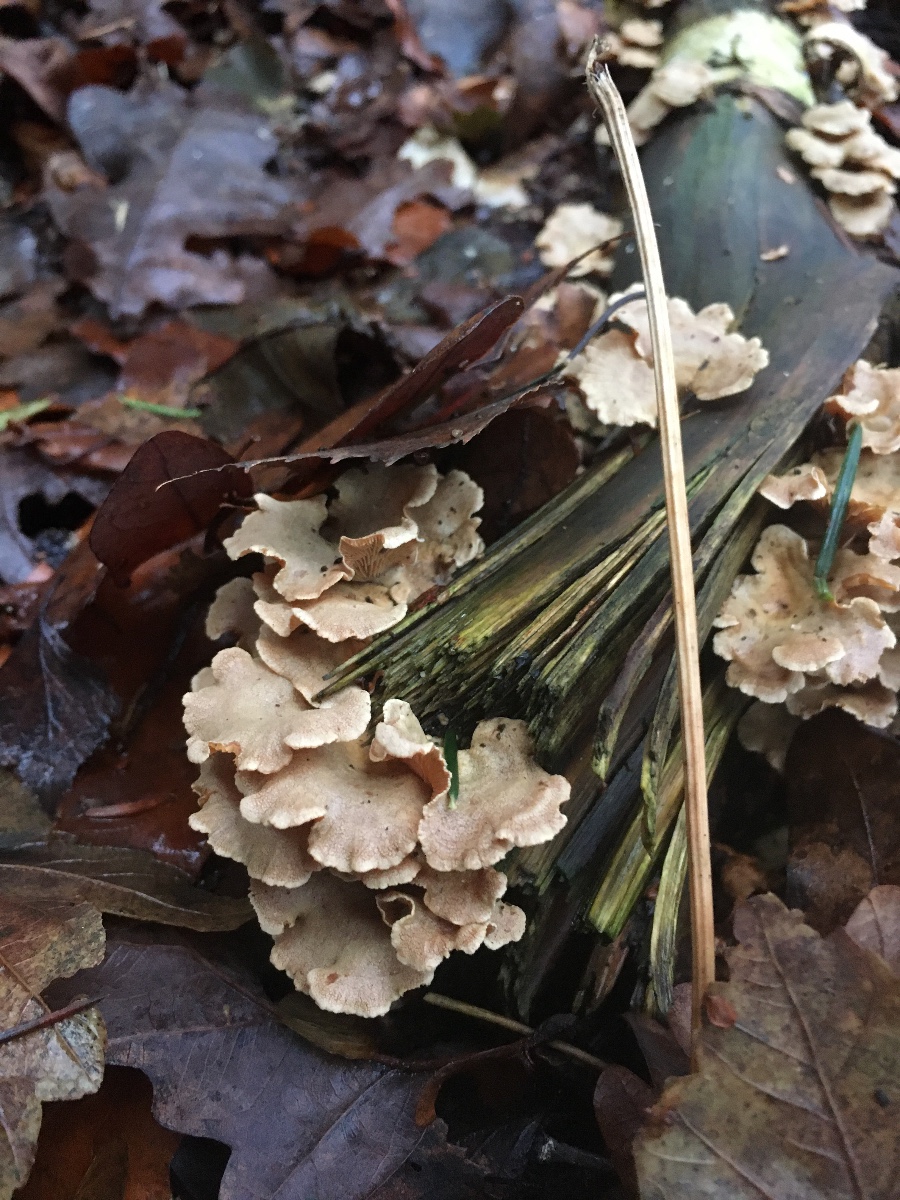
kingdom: Fungi
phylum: Basidiomycota
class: Agaricomycetes
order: Agaricales
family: Mycenaceae
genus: Panellus
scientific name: Panellus stipticus
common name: kliddet epaulethat
